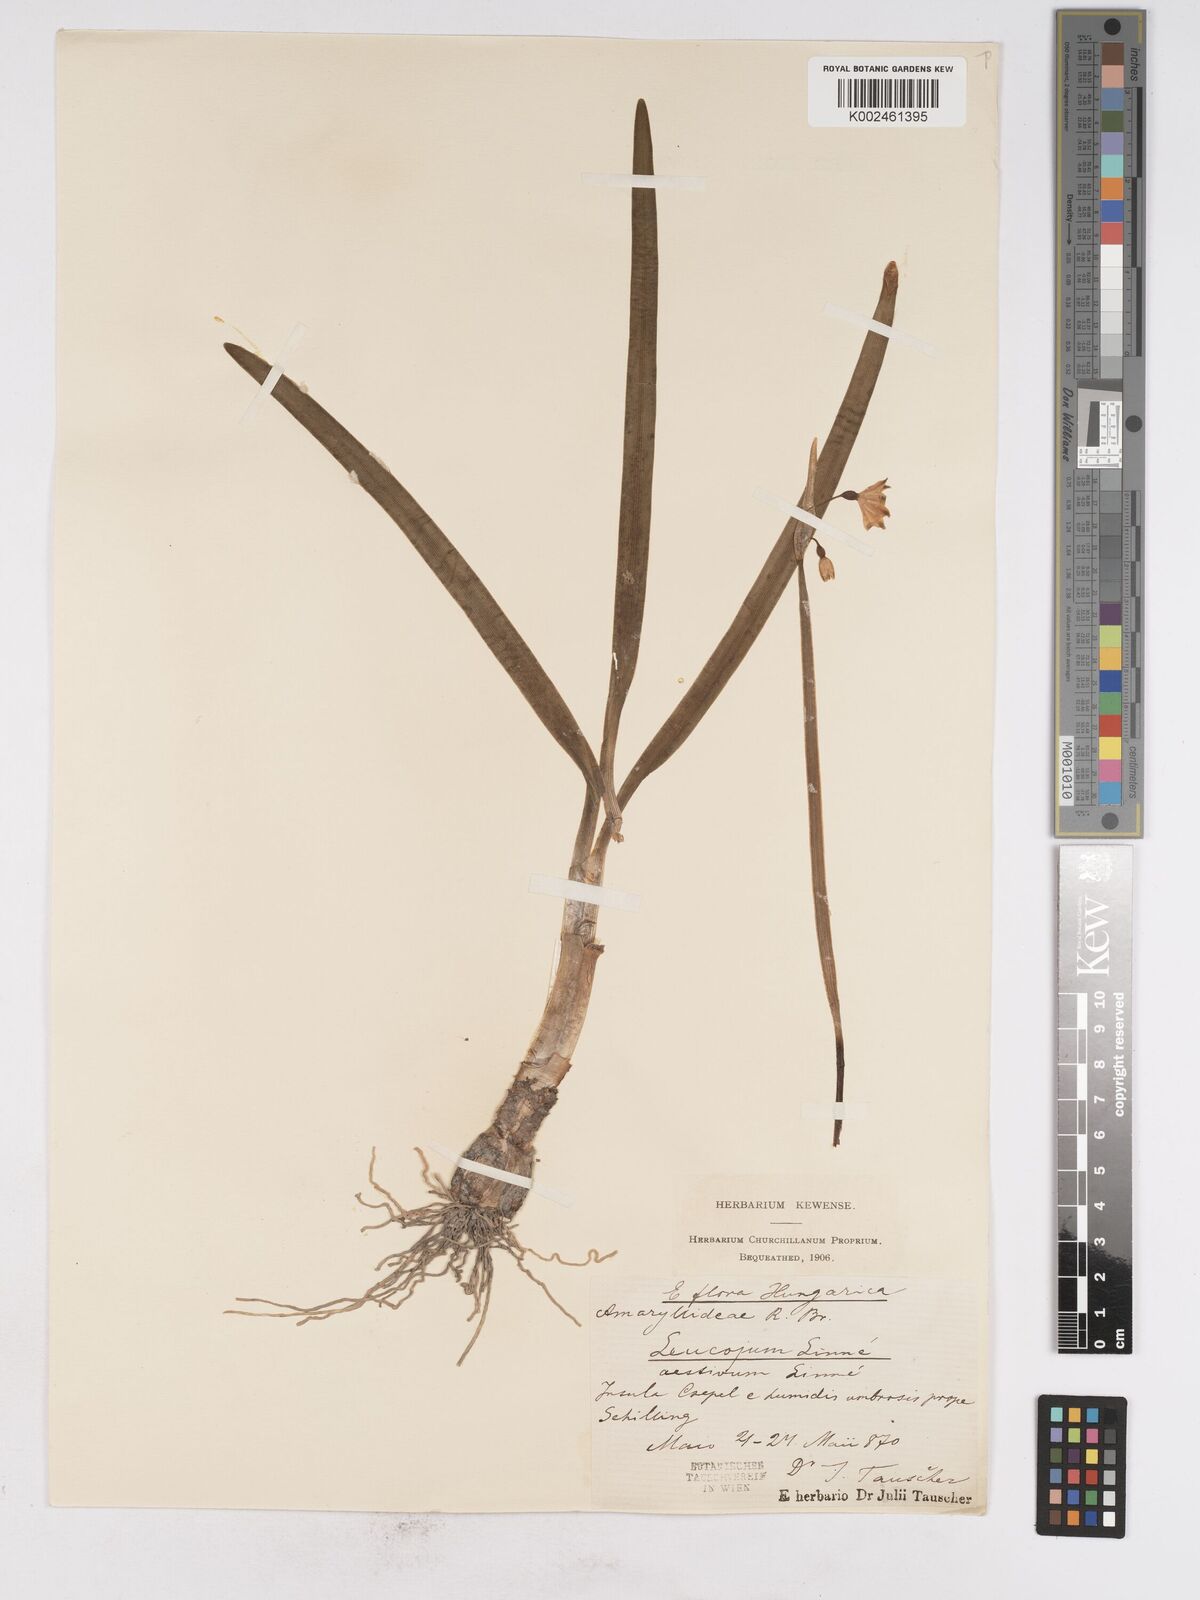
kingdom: Plantae
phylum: Tracheophyta
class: Liliopsida
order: Asparagales
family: Amaryllidaceae
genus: Leucojum
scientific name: Leucojum aestivum
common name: Summer snowflake
